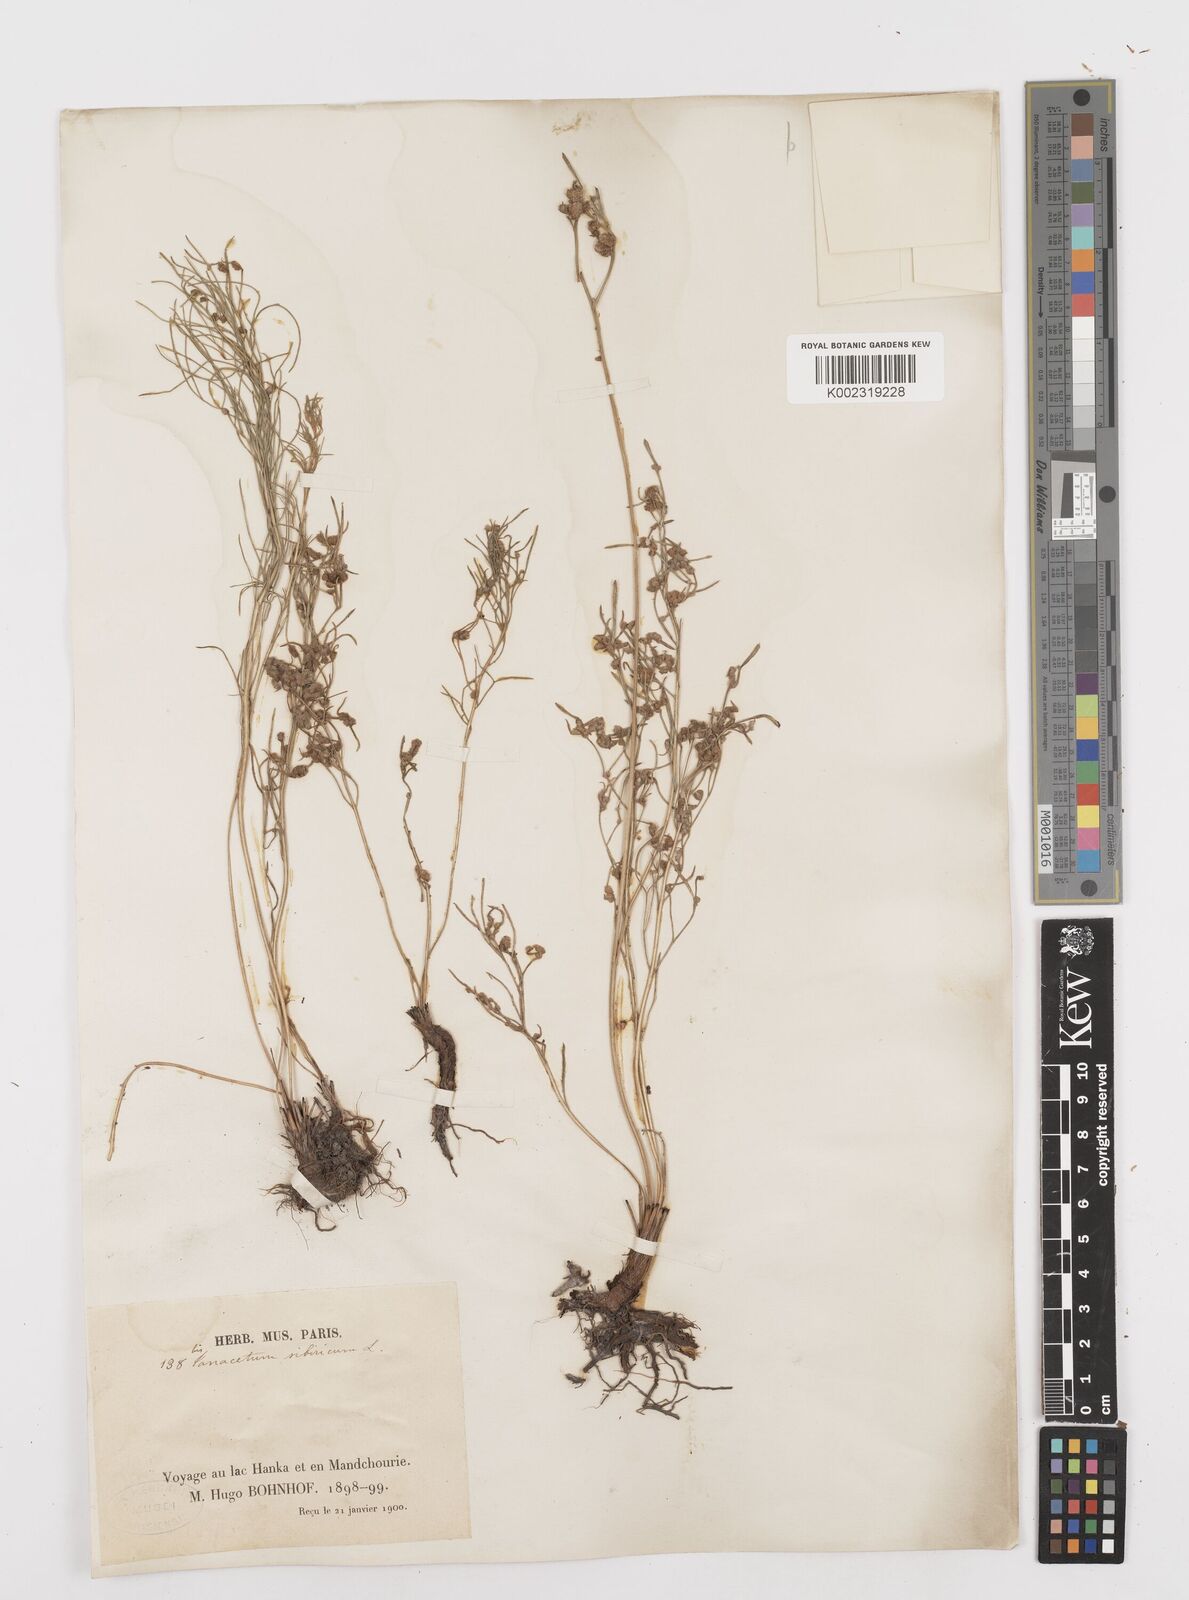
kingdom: Plantae
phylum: Tracheophyta
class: Magnoliopsida
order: Asterales
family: Asteraceae
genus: Filifolium
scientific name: Filifolium sibiricum
